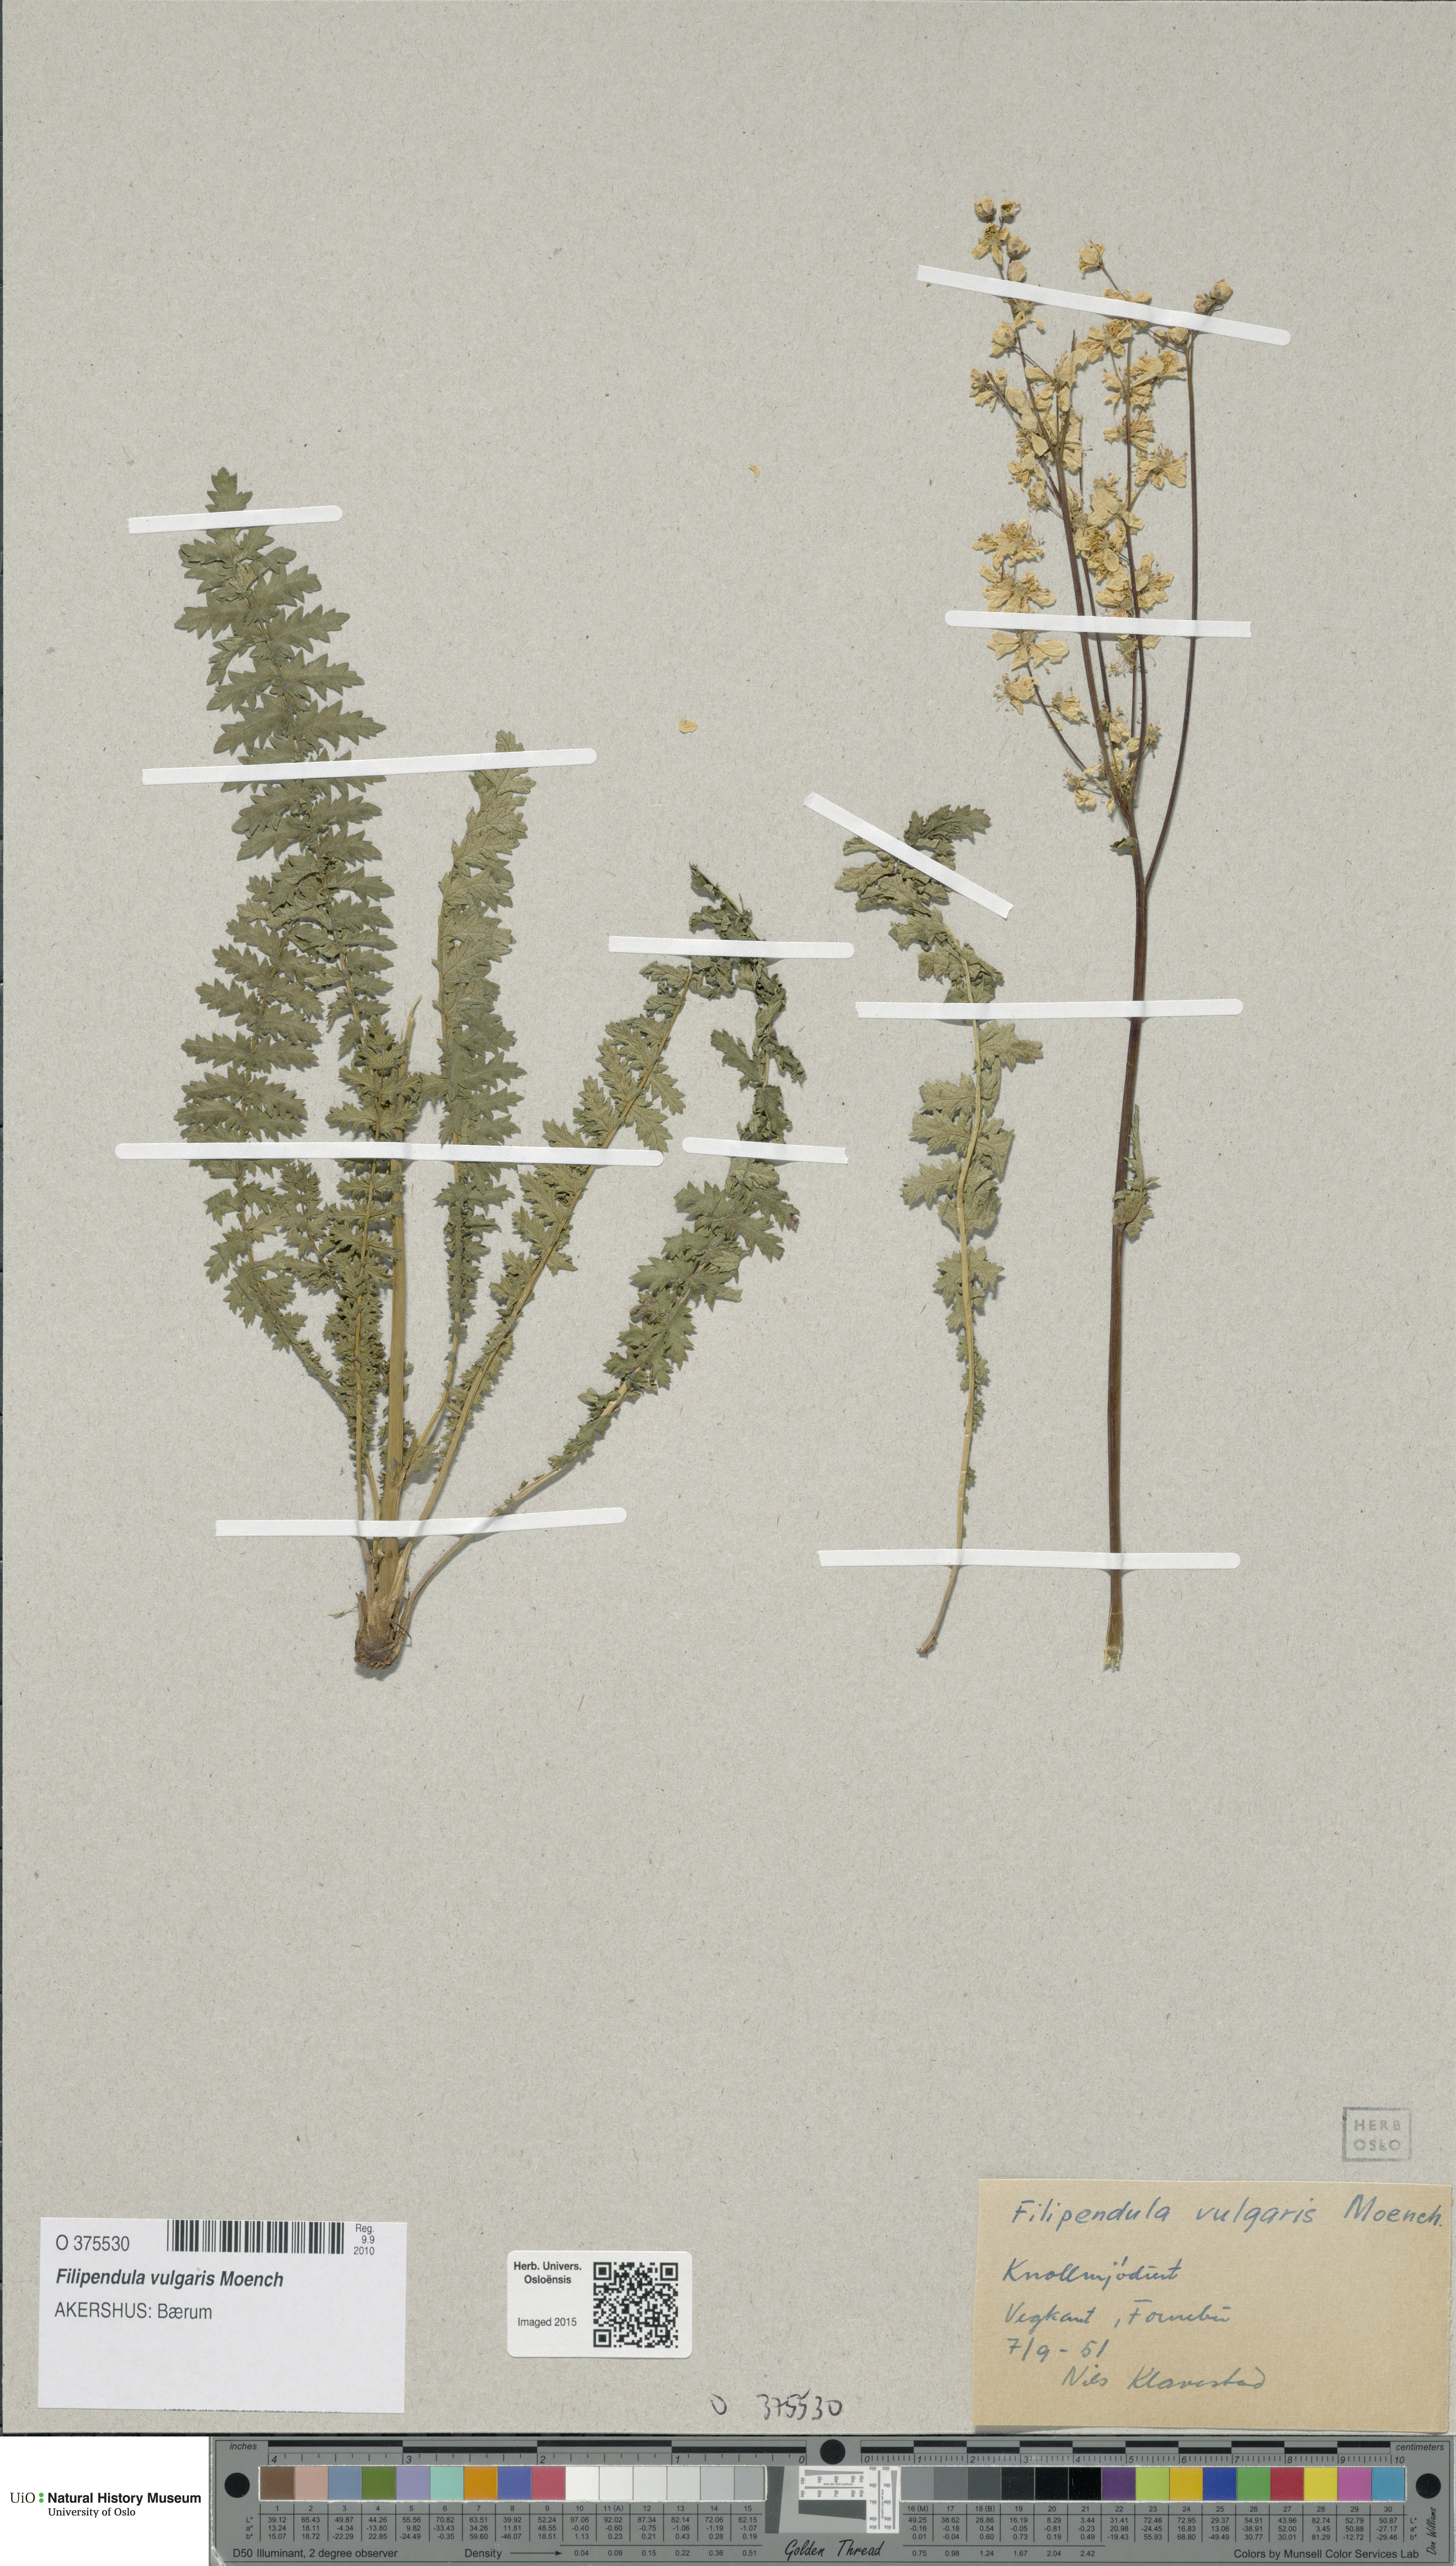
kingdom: Plantae
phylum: Tracheophyta
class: Magnoliopsida
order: Rosales
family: Rosaceae
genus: Filipendula
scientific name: Filipendula vulgaris
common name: Dropwort
